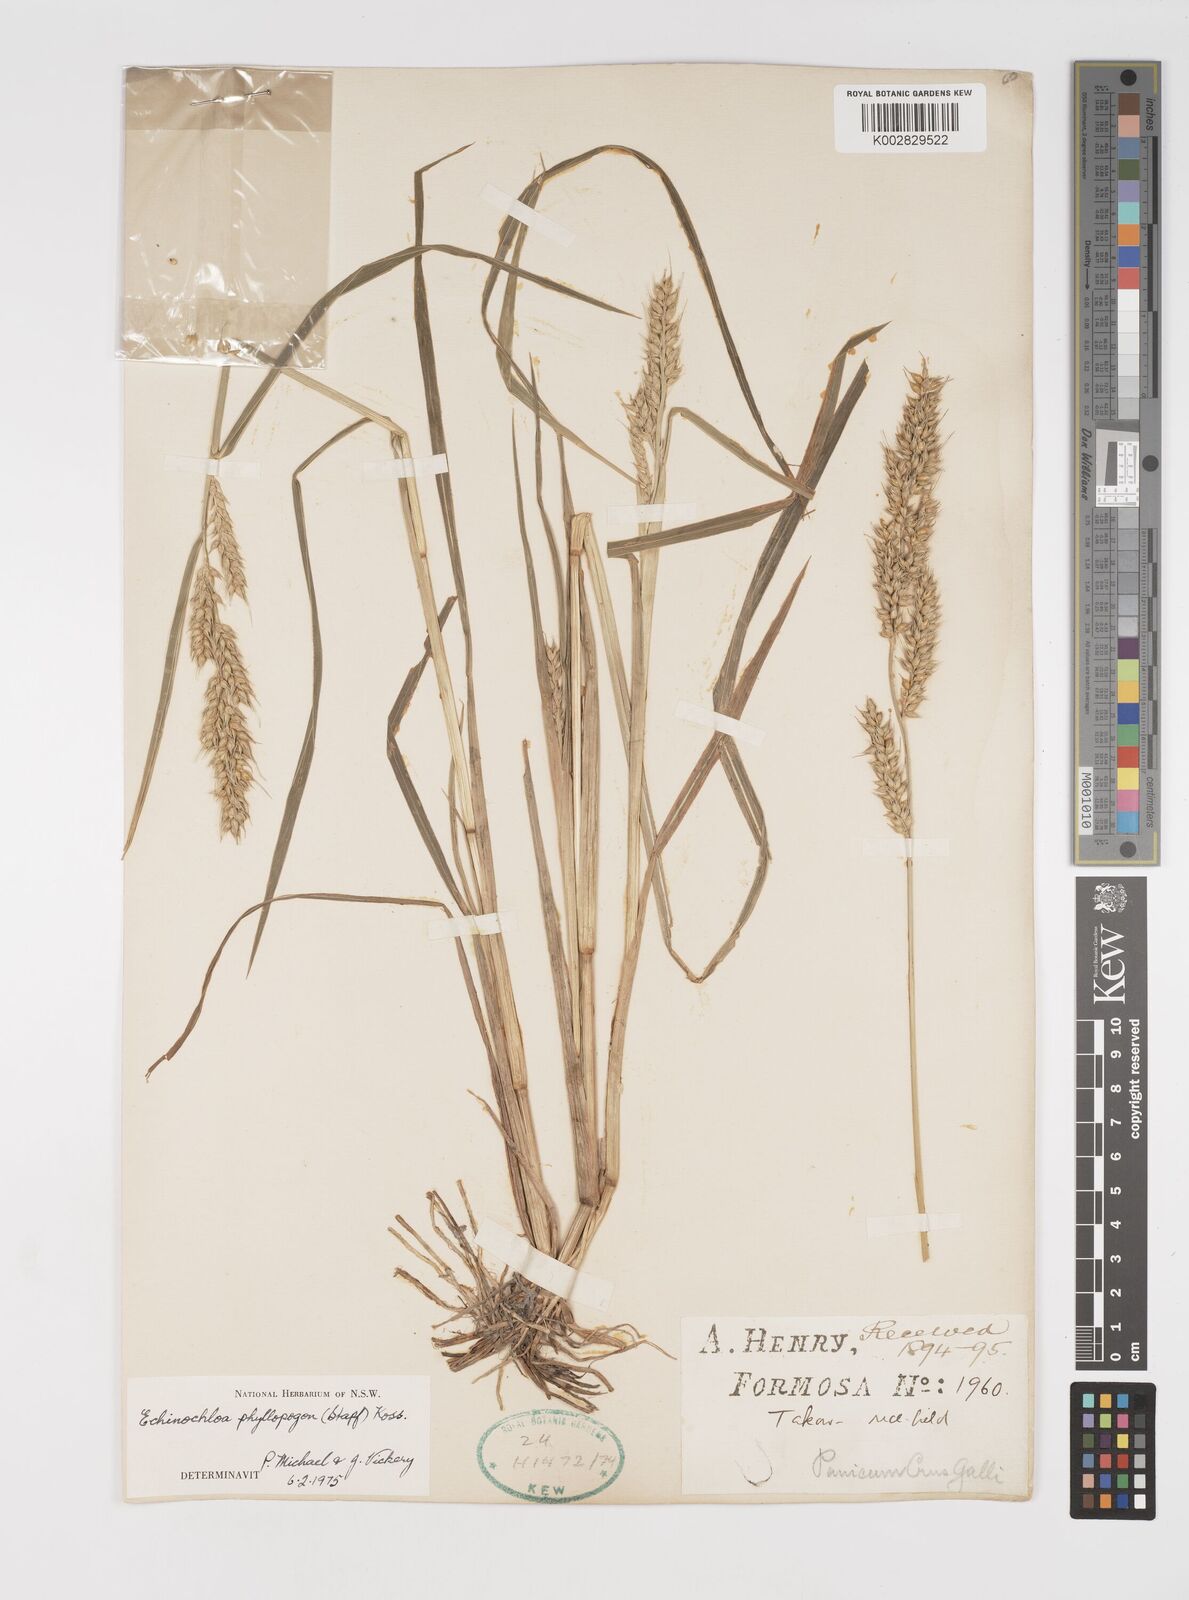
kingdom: Plantae
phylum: Tracheophyta
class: Liliopsida
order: Poales
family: Poaceae
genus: Echinochloa
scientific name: Echinochloa oryzoides
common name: Early water grass
